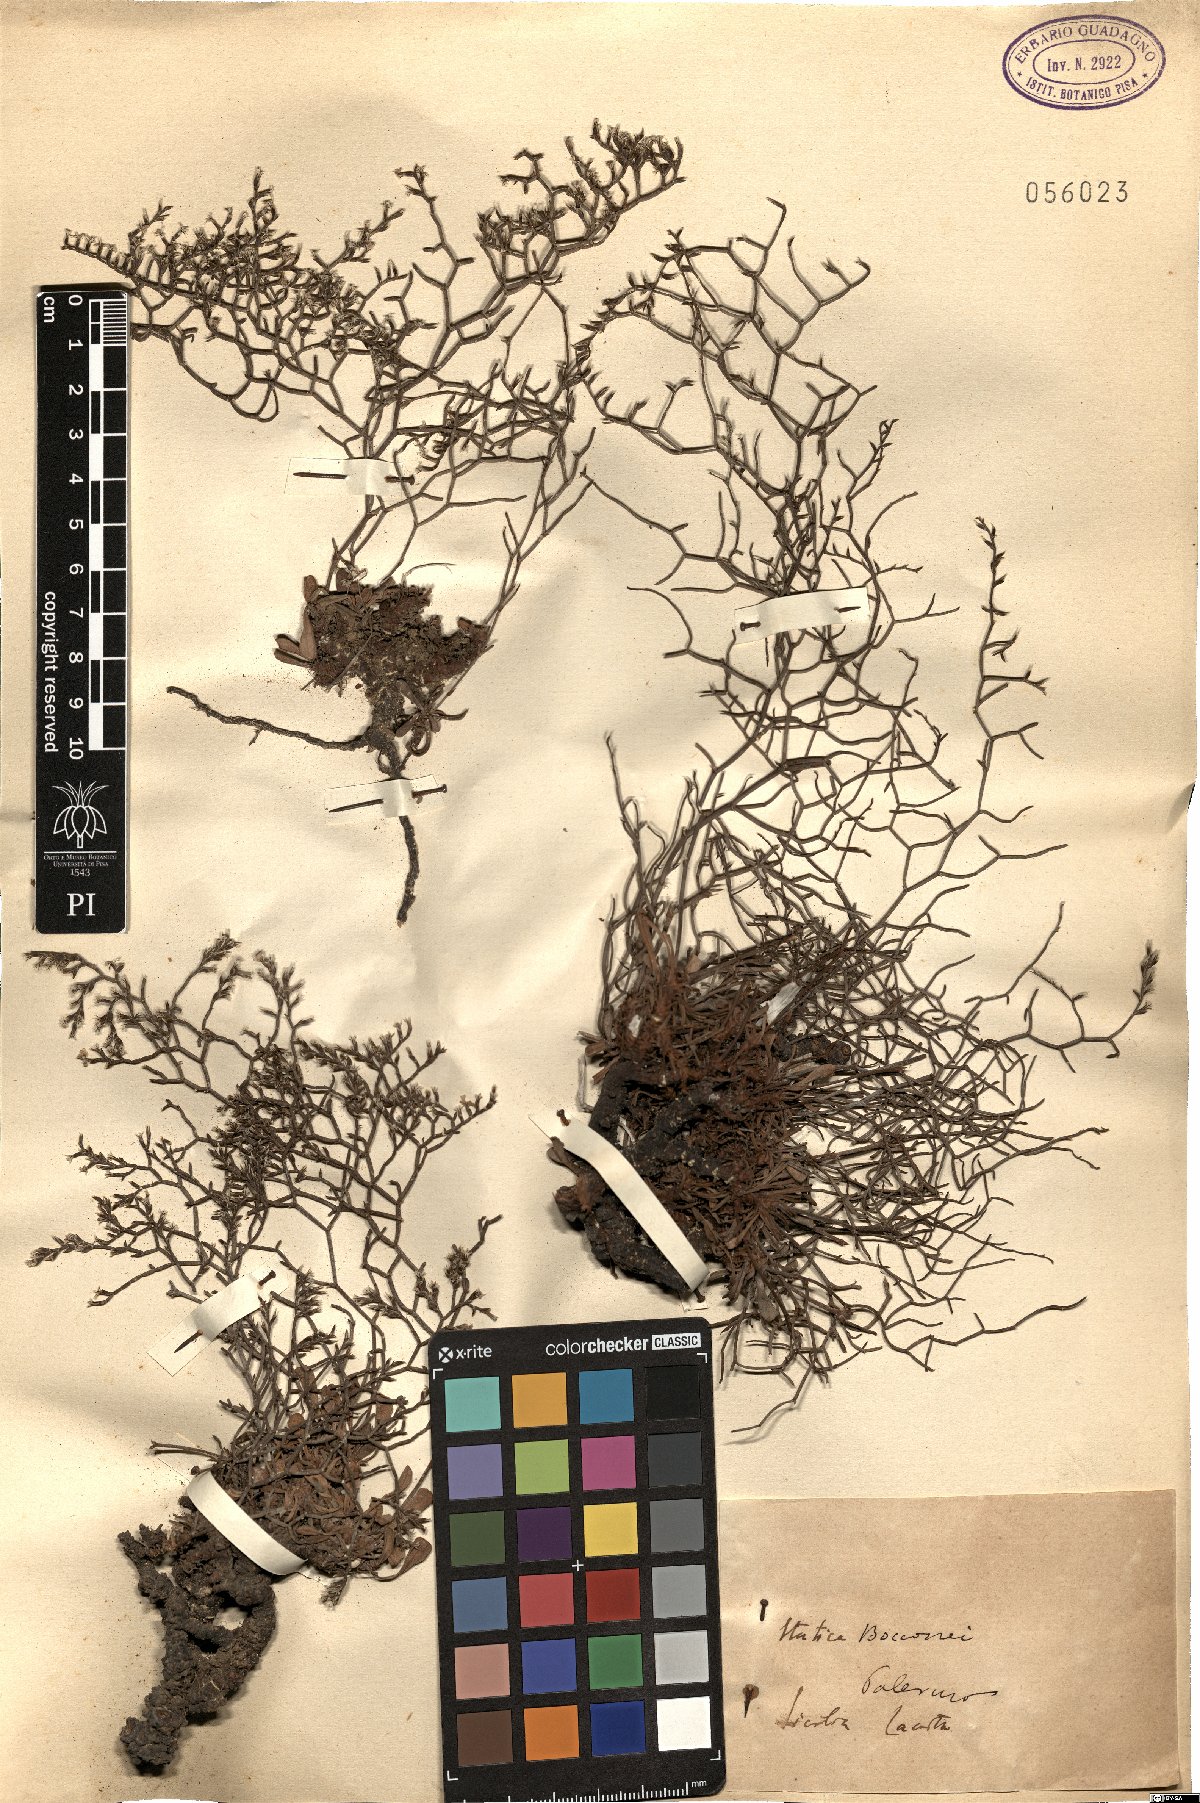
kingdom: Plantae
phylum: Tracheophyta
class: Magnoliopsida
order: Caryophyllales
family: Plumbaginaceae
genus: Limonium
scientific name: Limonium bocconei
